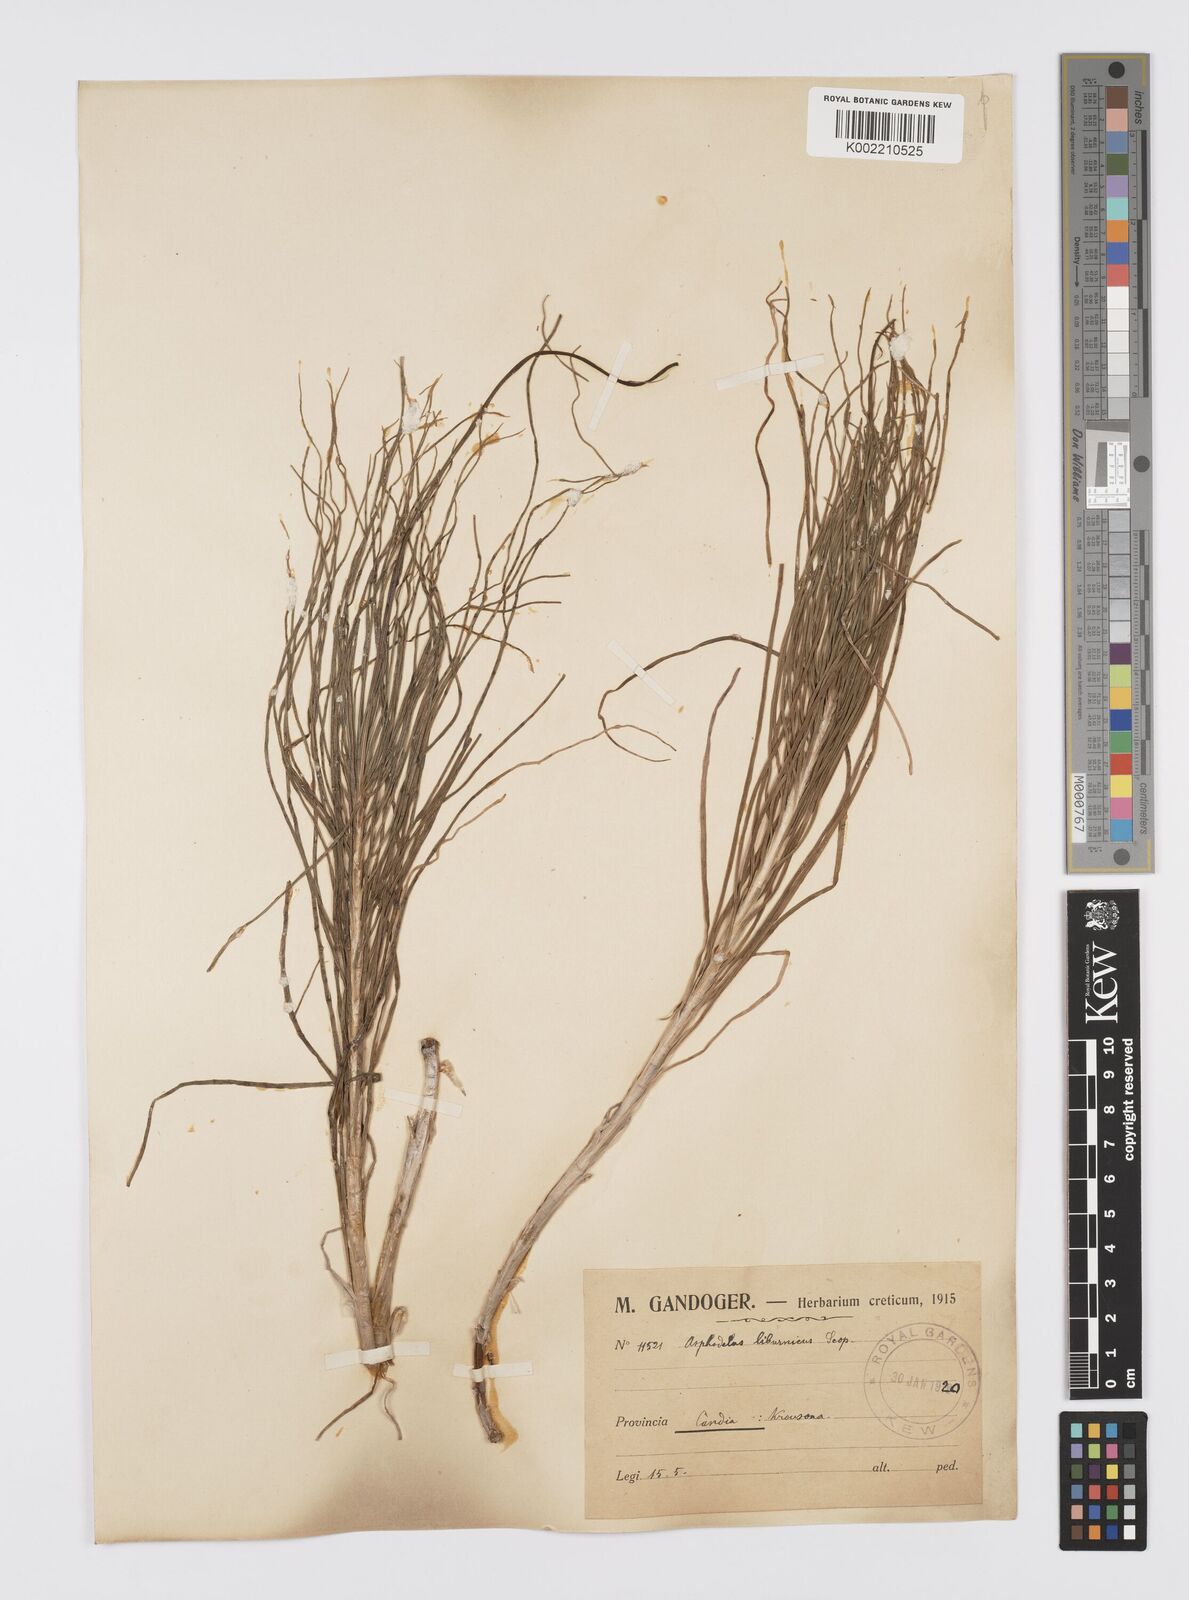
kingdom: Plantae
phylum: Tracheophyta
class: Liliopsida
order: Asparagales
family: Asphodelaceae
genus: Asphodeline
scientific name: Asphodeline liburnica
